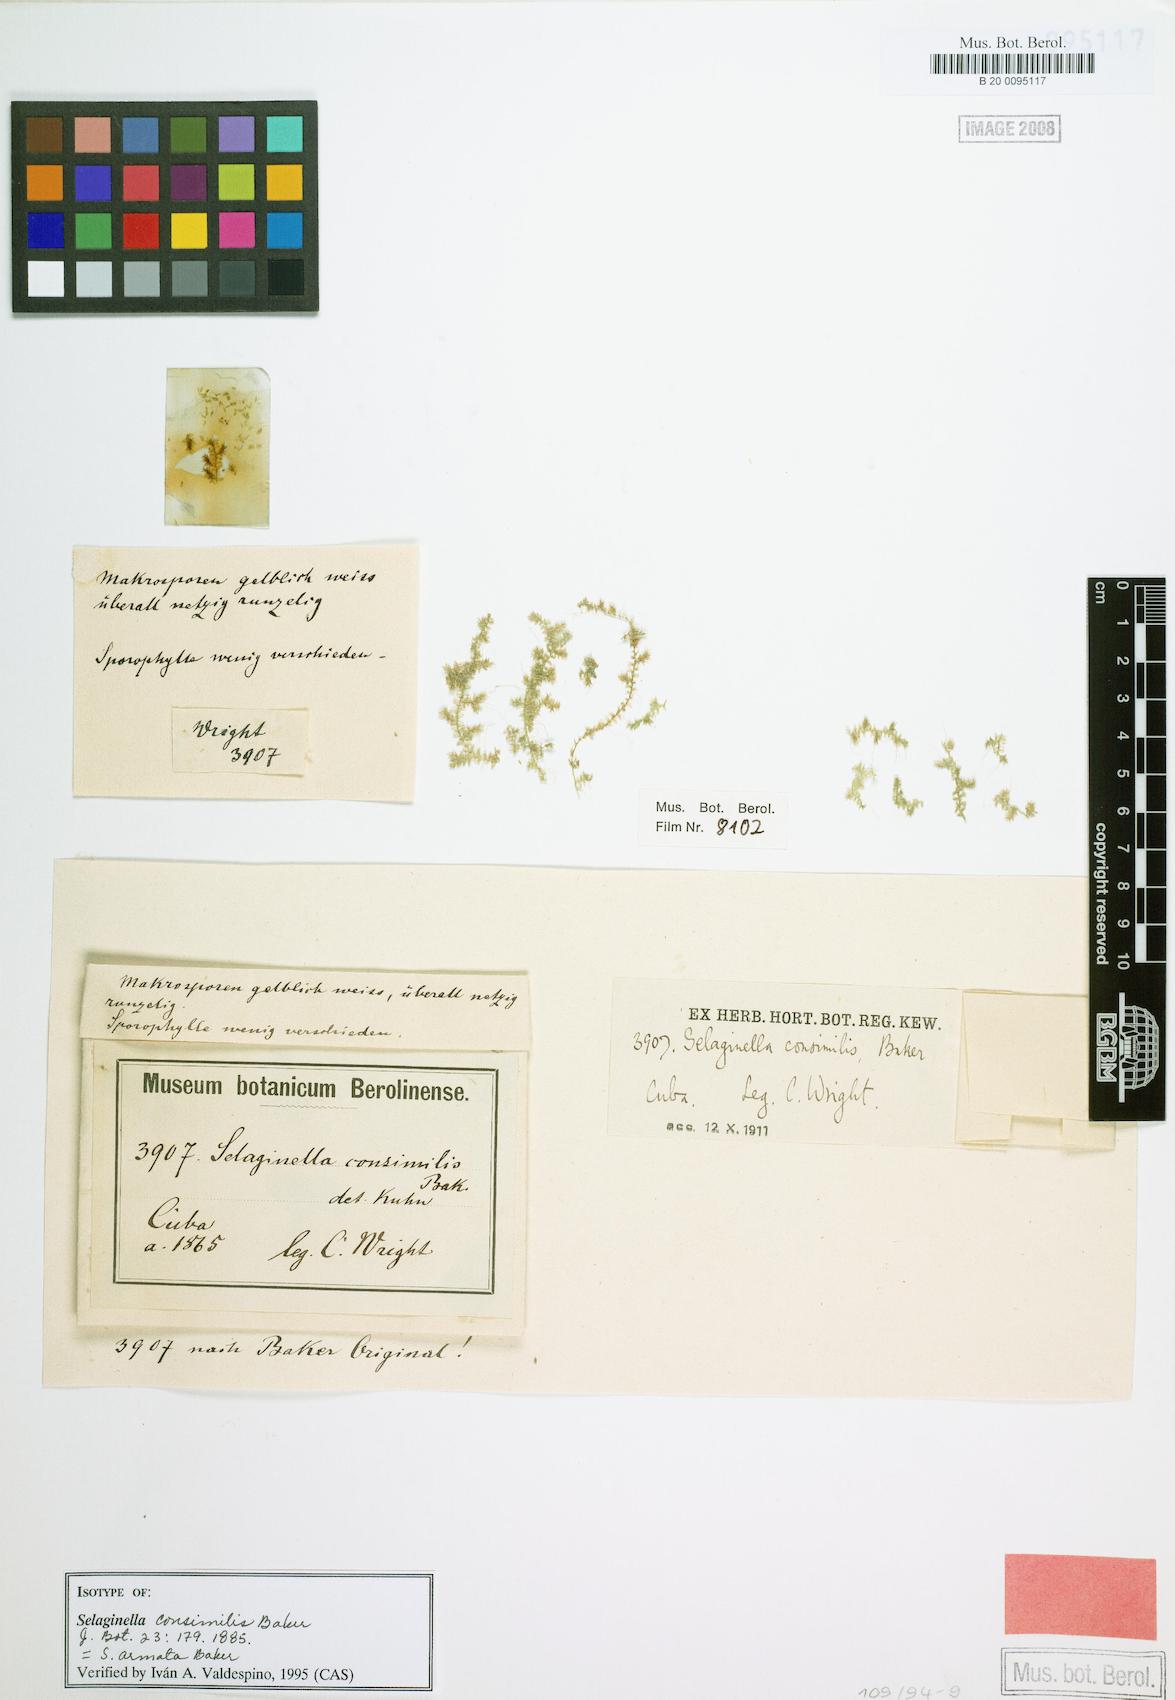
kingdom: Plantae
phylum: Tracheophyta
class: Lycopodiopsida
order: Selaginellales
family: Selaginellaceae
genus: Selaginella
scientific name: Selaginella armata
